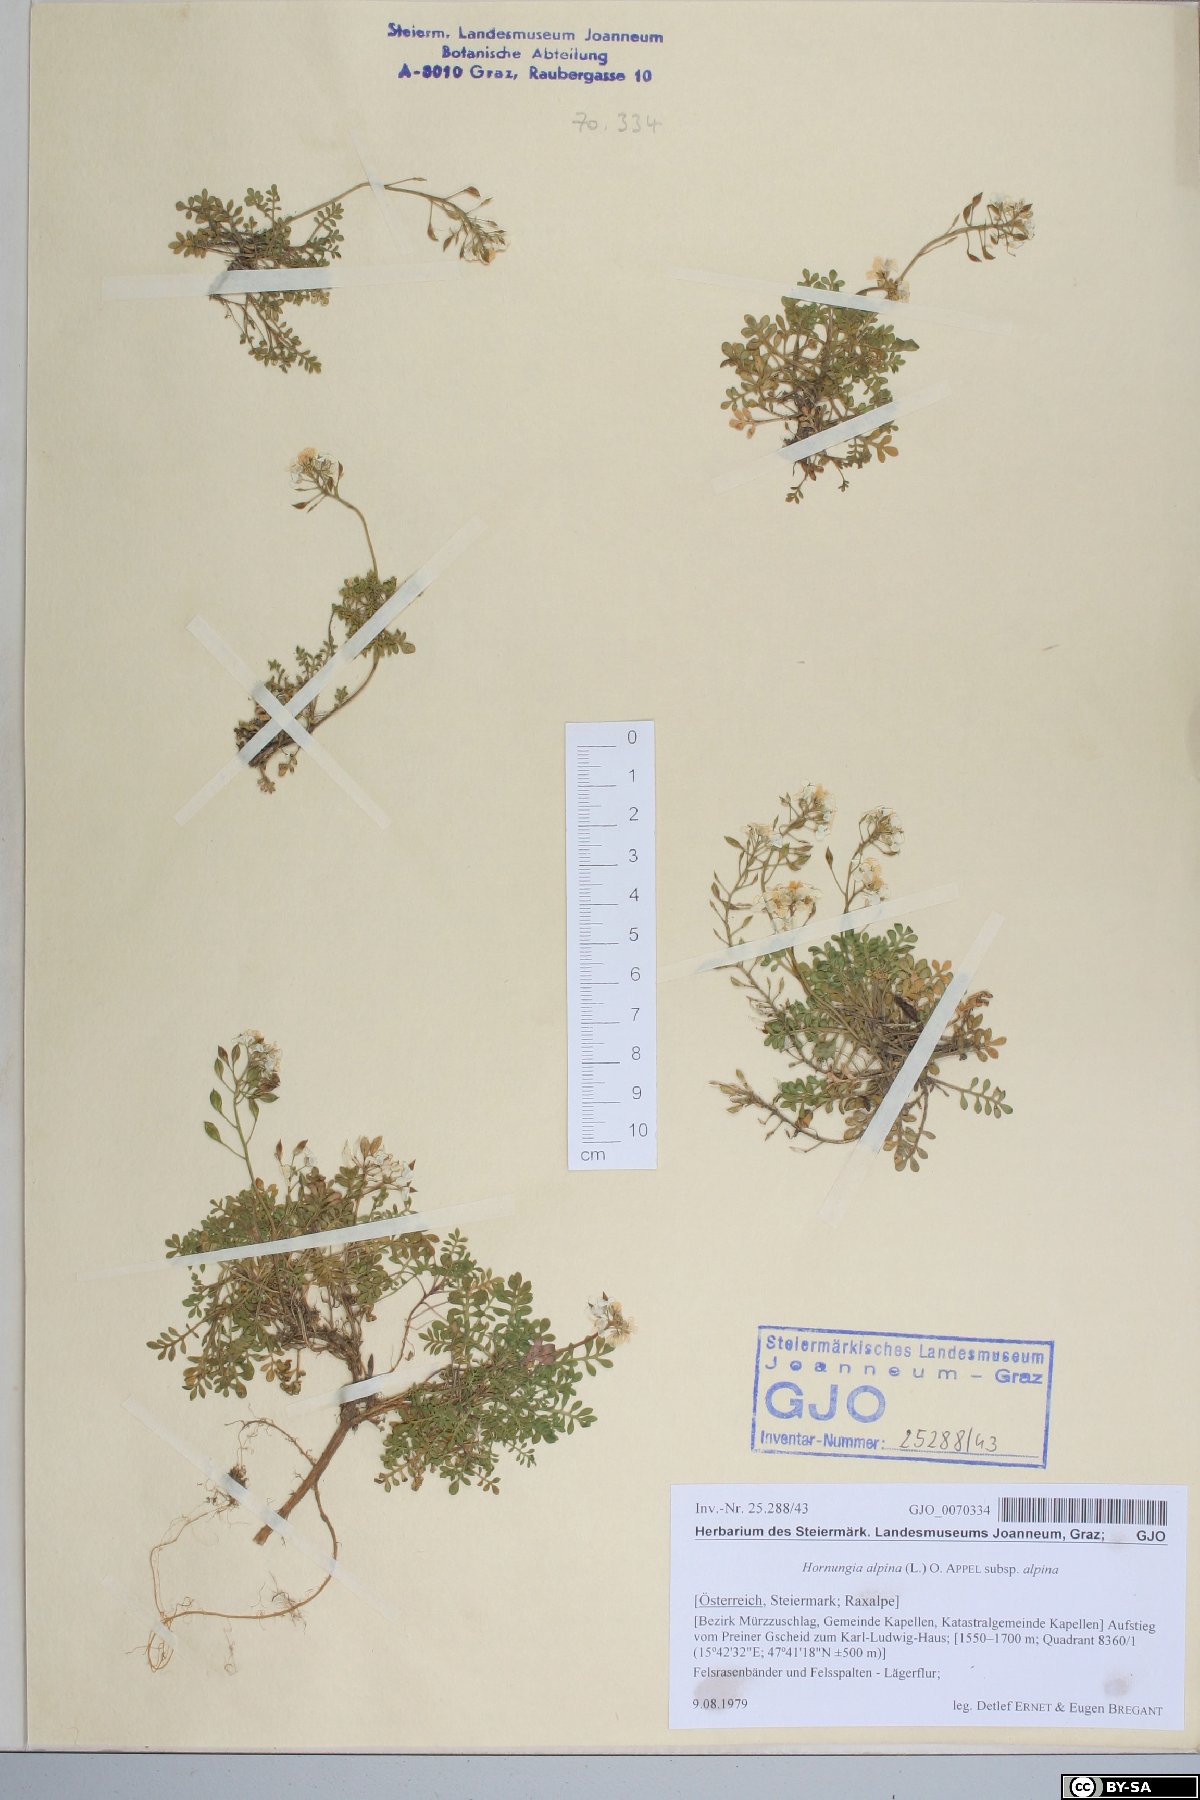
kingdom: Plantae
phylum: Tracheophyta
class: Magnoliopsida
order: Brassicales
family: Brassicaceae
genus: Hornungia
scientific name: Hornungia alpina
